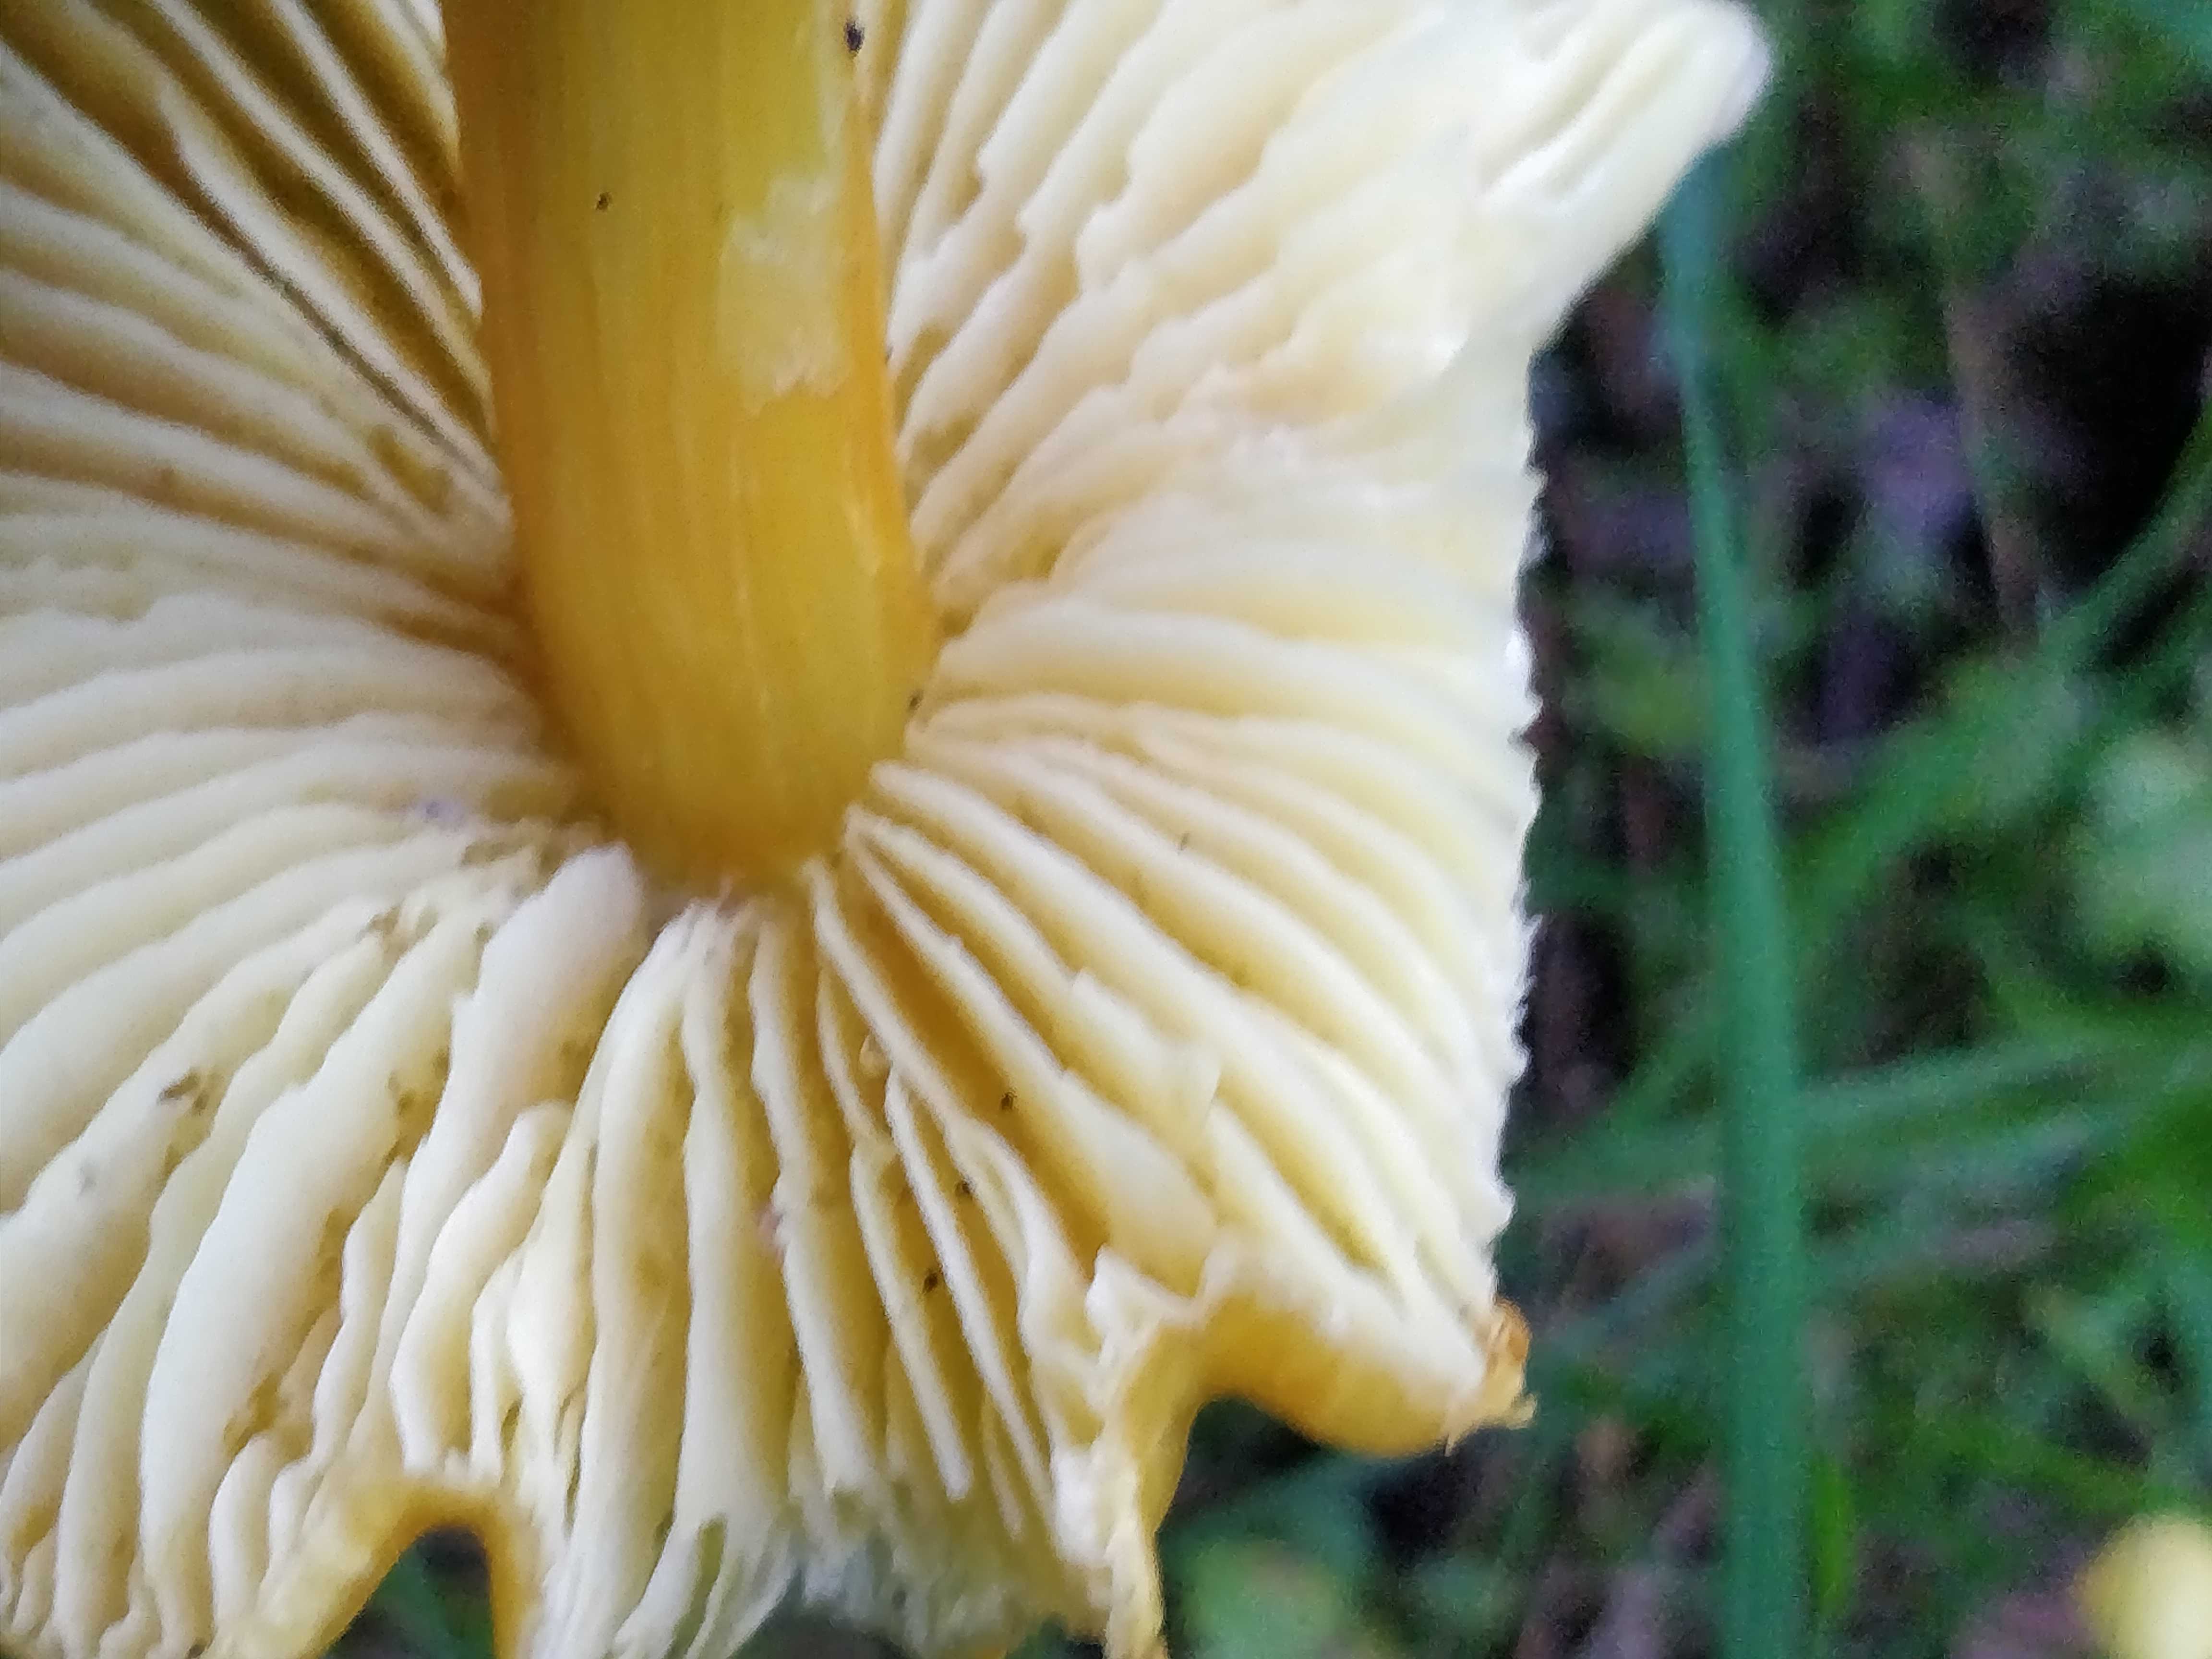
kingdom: Fungi
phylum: Basidiomycota
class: Agaricomycetes
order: Agaricales
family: Hygrophoraceae
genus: Hygrocybe
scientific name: Hygrocybe
